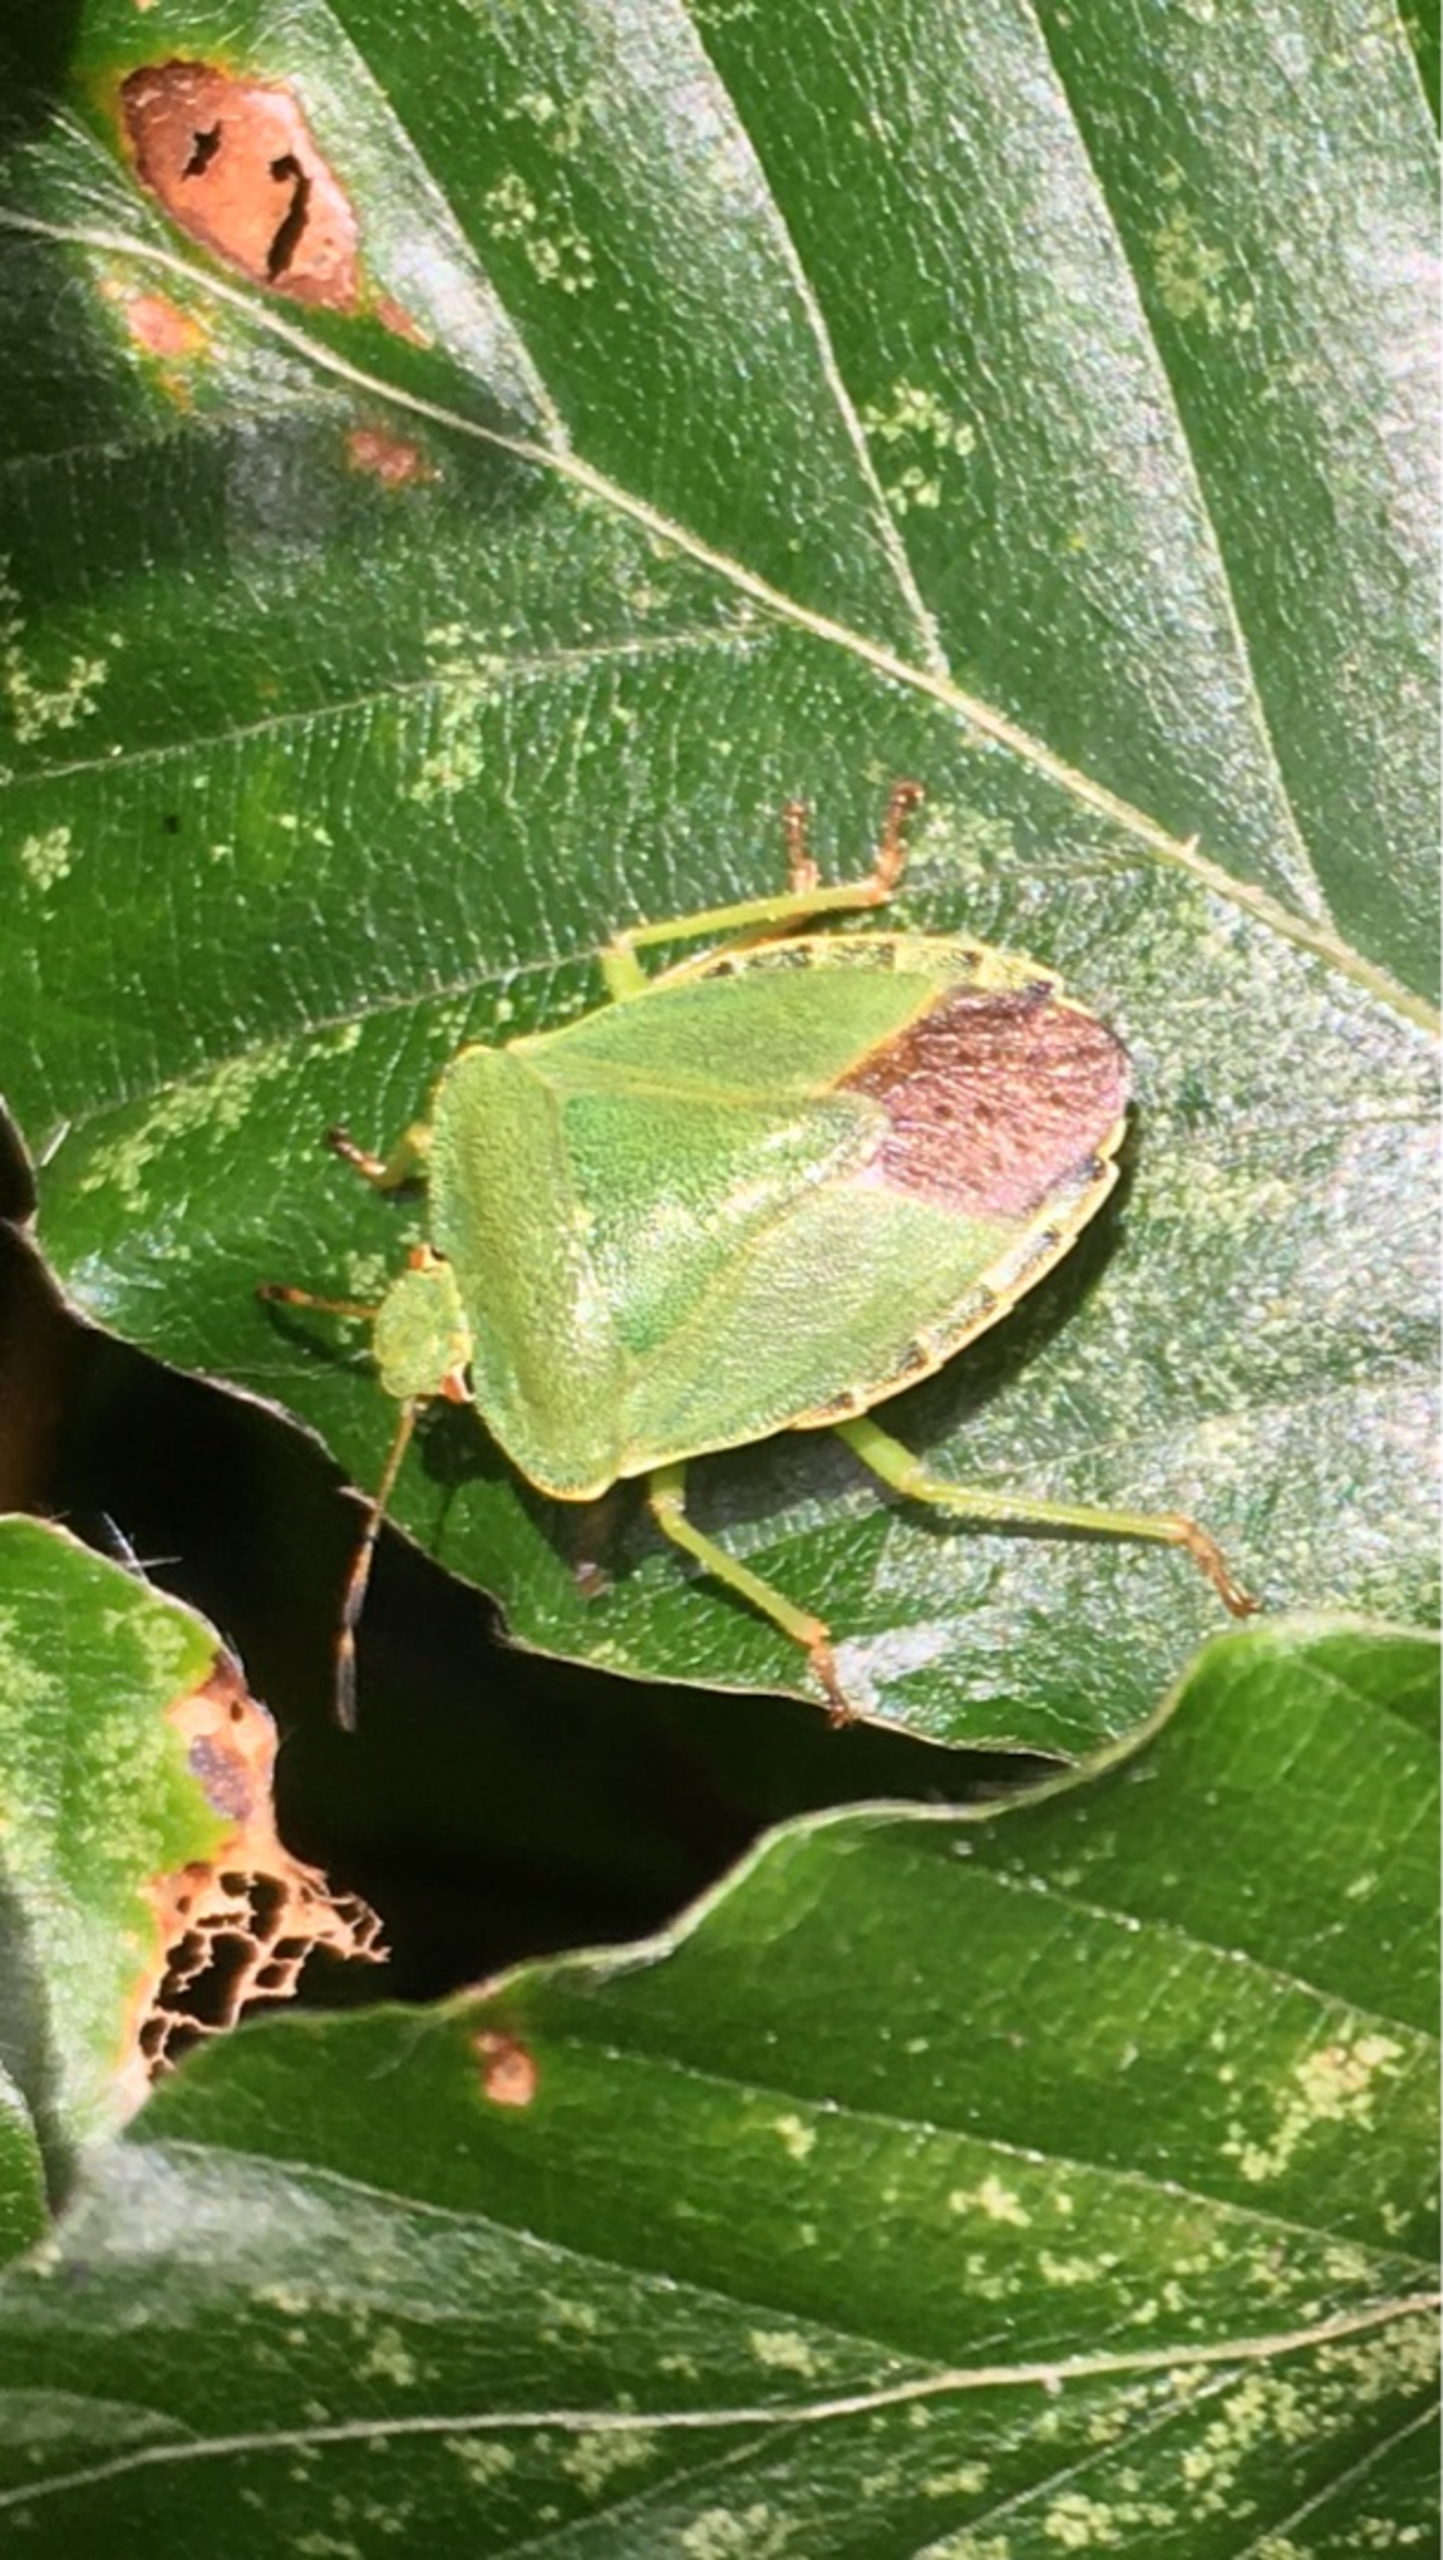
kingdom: Animalia
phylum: Arthropoda
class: Insecta
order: Hemiptera
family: Pentatomidae
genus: Palomena
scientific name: Palomena prasina
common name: Grøn bredtæge
